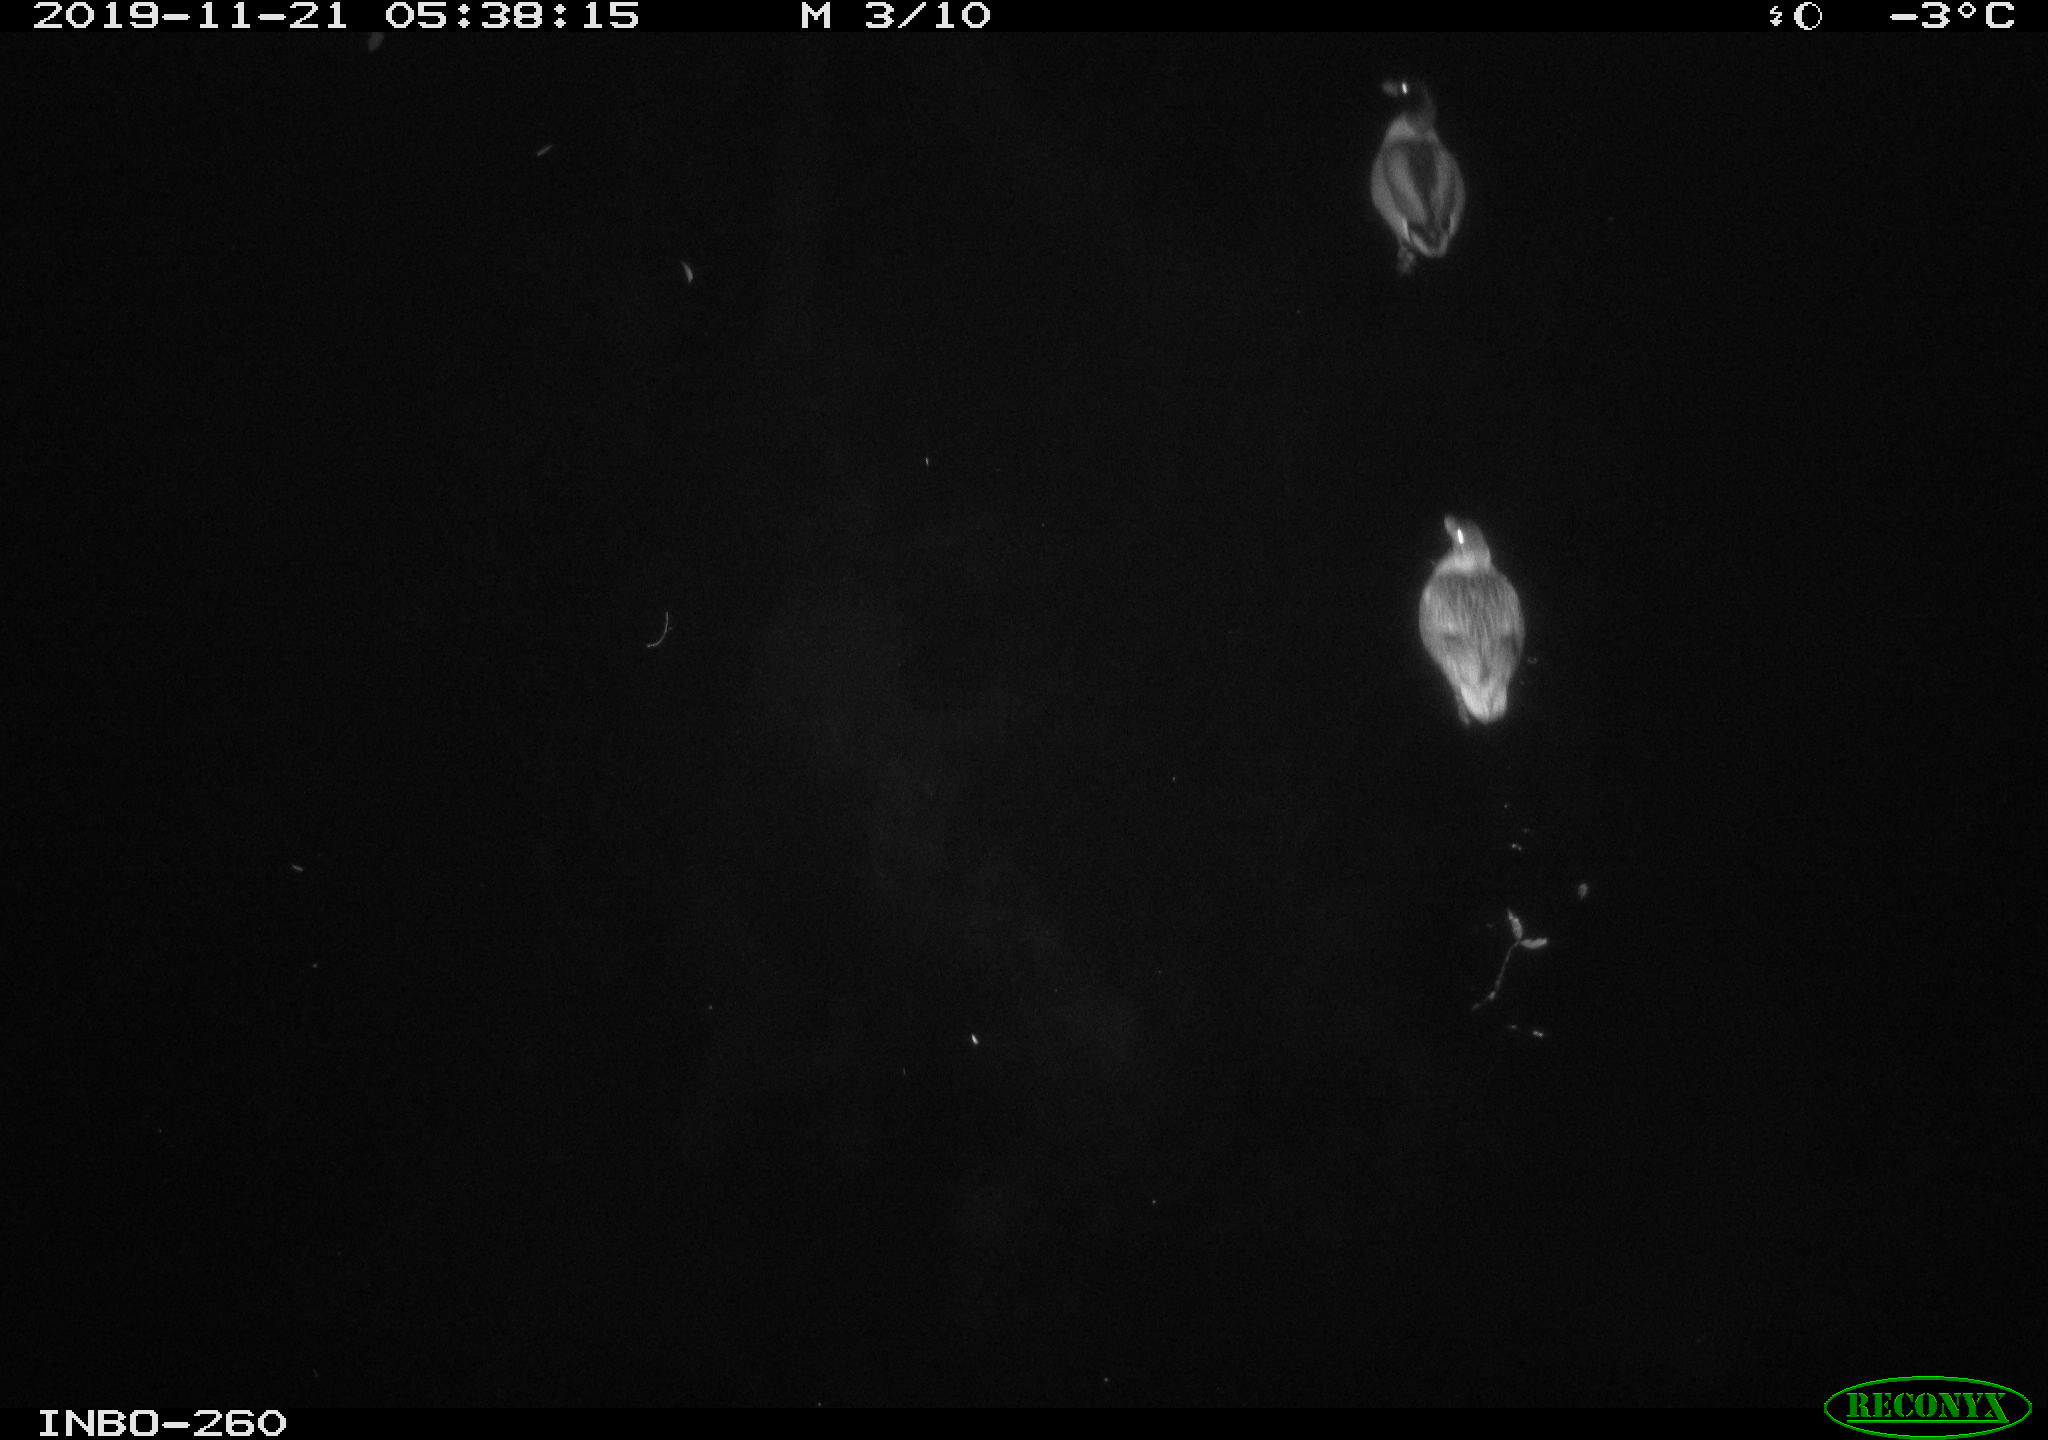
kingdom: Animalia
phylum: Chordata
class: Aves
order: Anseriformes
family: Anatidae
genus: Anas
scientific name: Anas platyrhynchos
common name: Mallard
